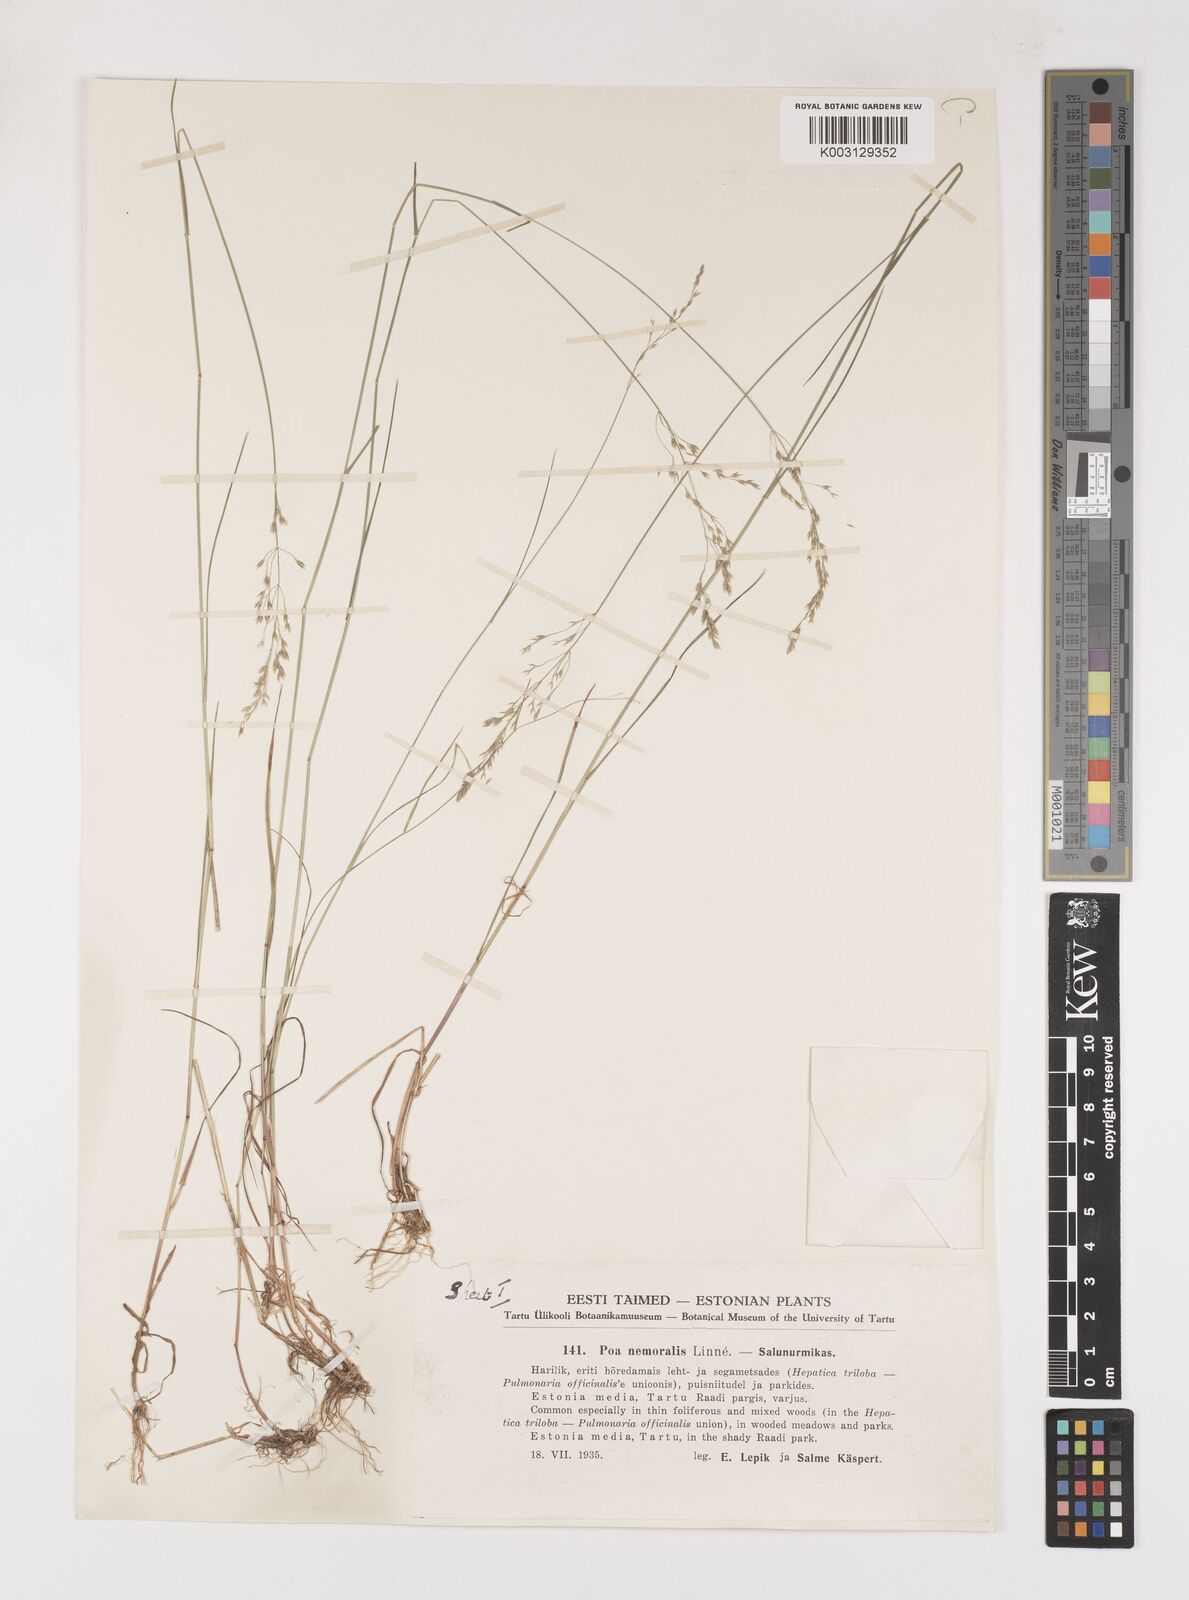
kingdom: Plantae
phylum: Tracheophyta
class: Liliopsida
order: Poales
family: Poaceae
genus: Poa
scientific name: Poa nemoralis
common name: Wood bluegrass
